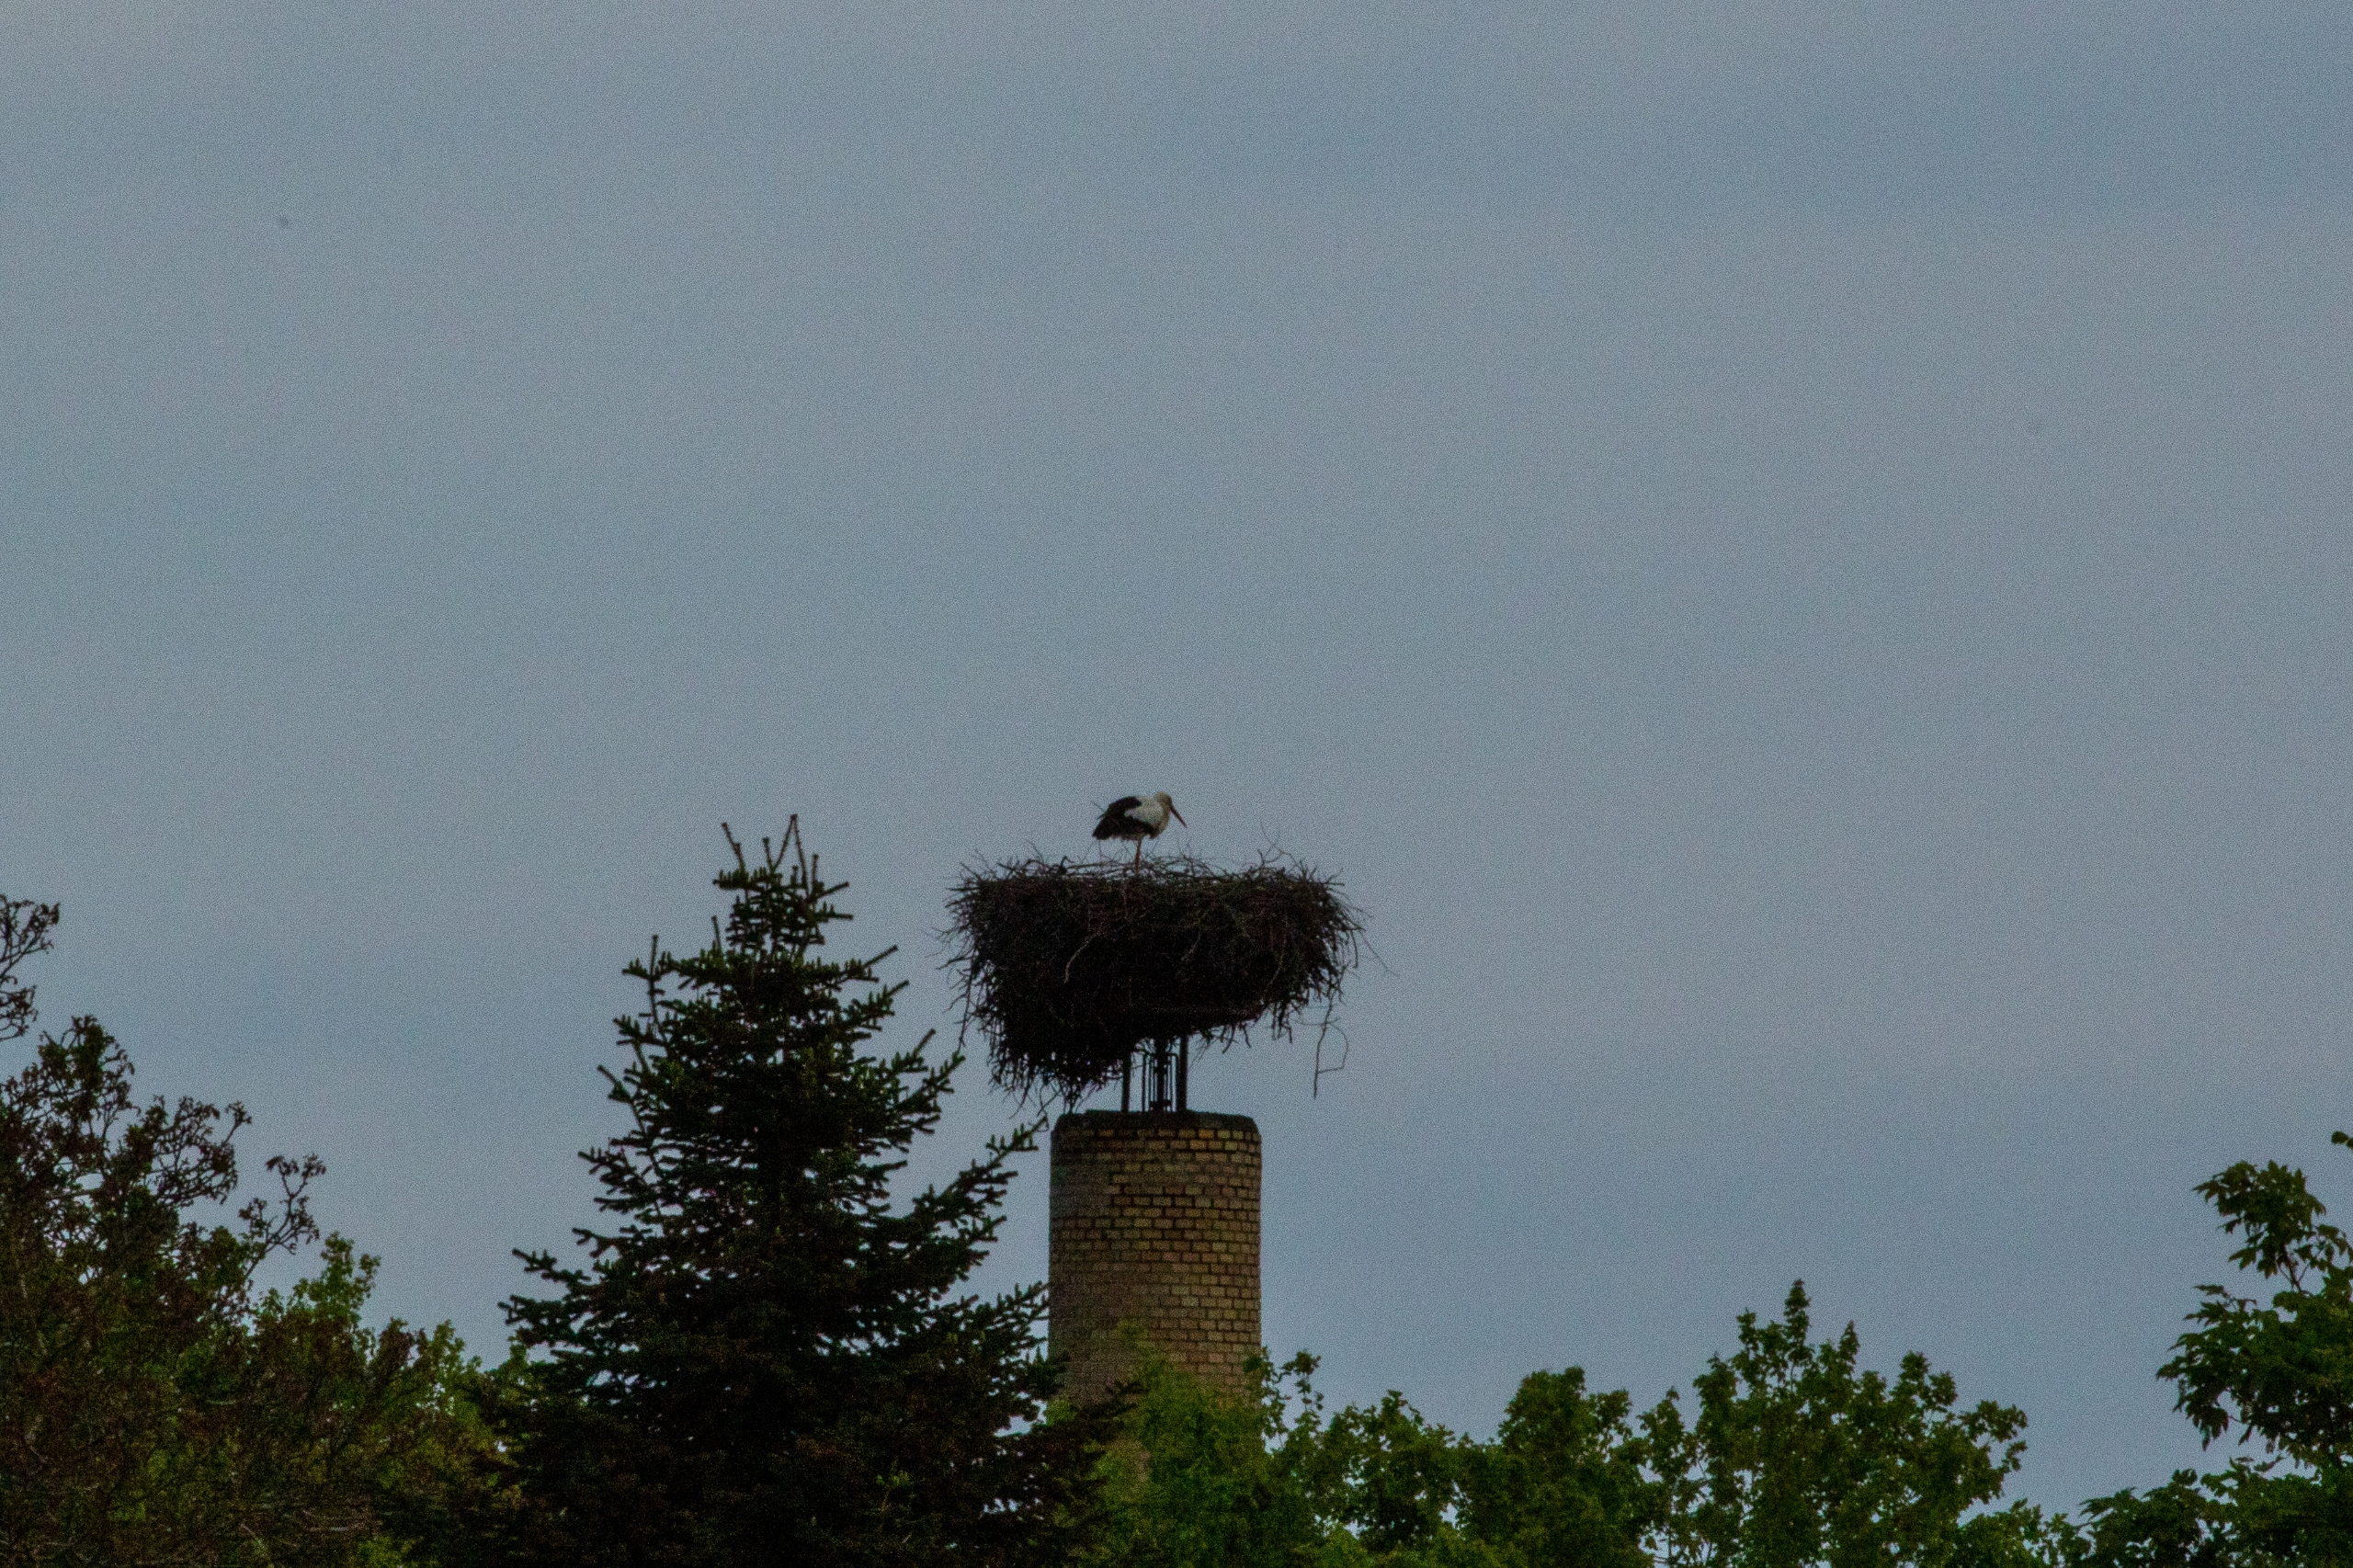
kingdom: Animalia
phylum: Chordata
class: Aves
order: Ciconiiformes
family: Ciconiidae
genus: Ciconia
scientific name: Ciconia ciconia
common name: Hvid stork
